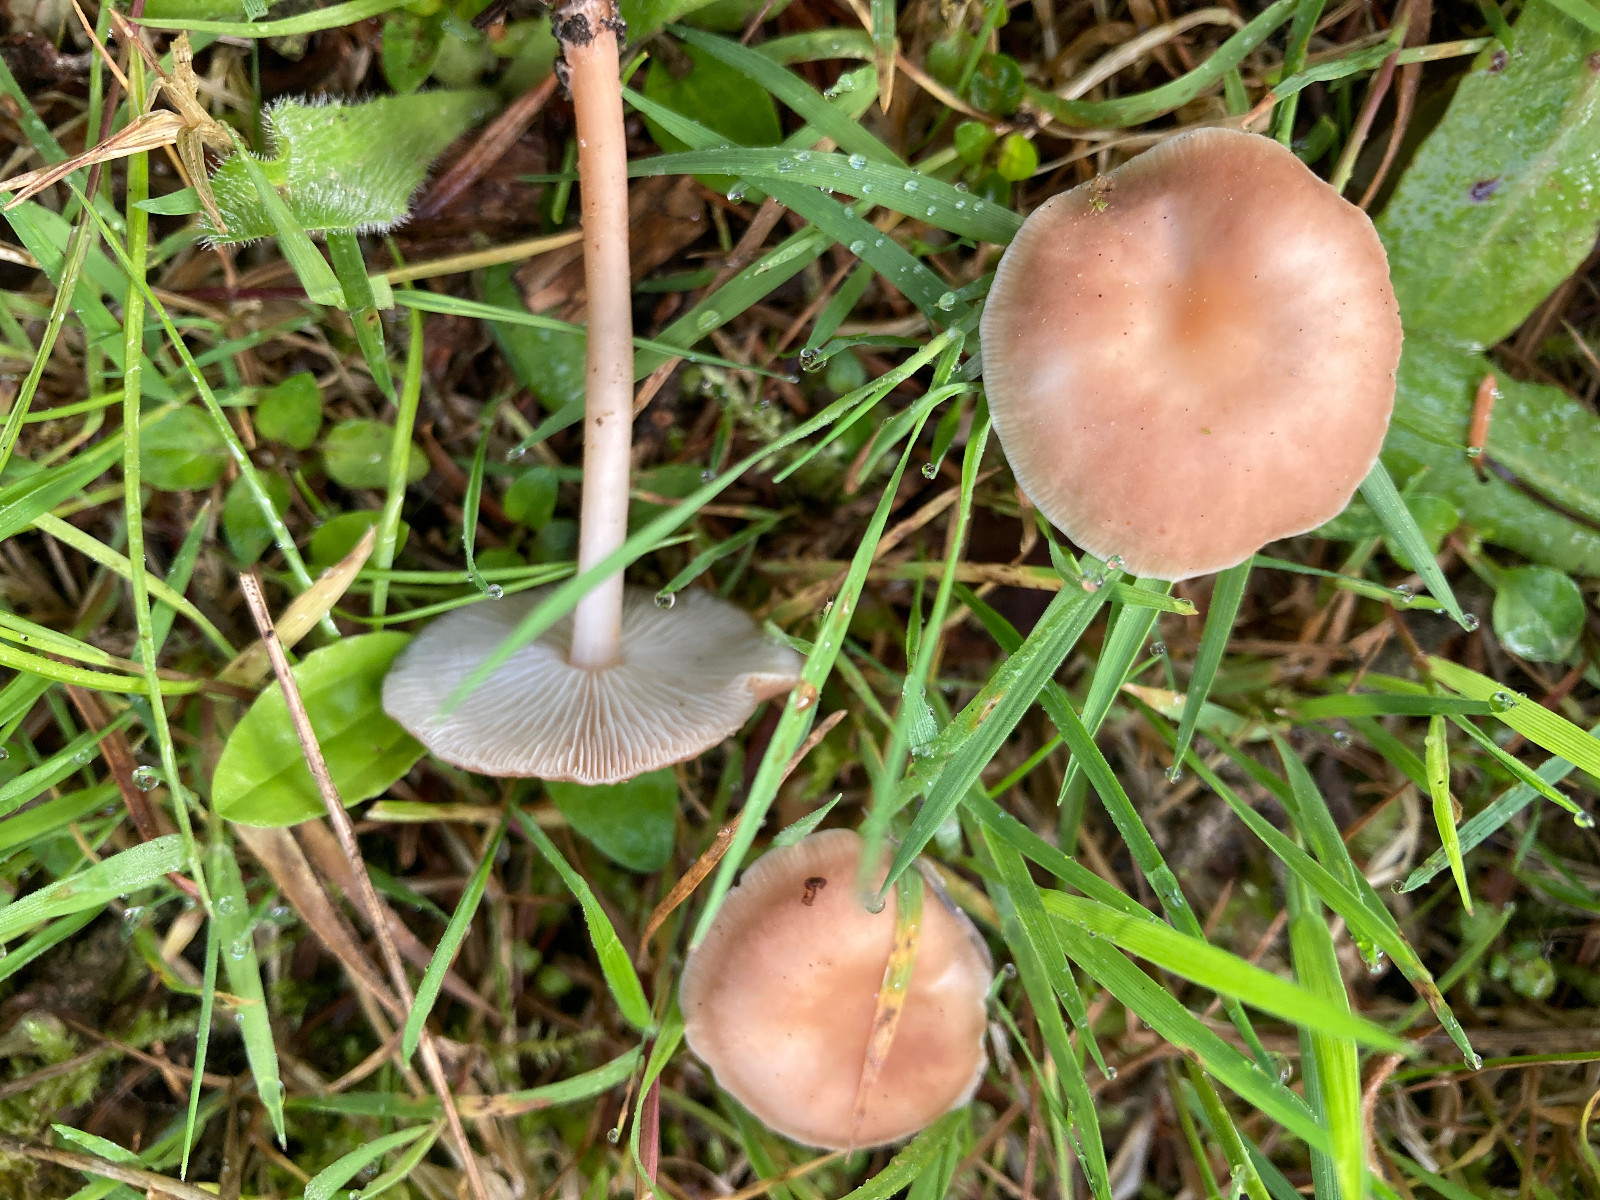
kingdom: Fungi
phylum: Basidiomycota
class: Agaricomycetes
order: Agaricales
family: Omphalotaceae
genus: Gymnopus
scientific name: Gymnopus ocior
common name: mørk fladhat
